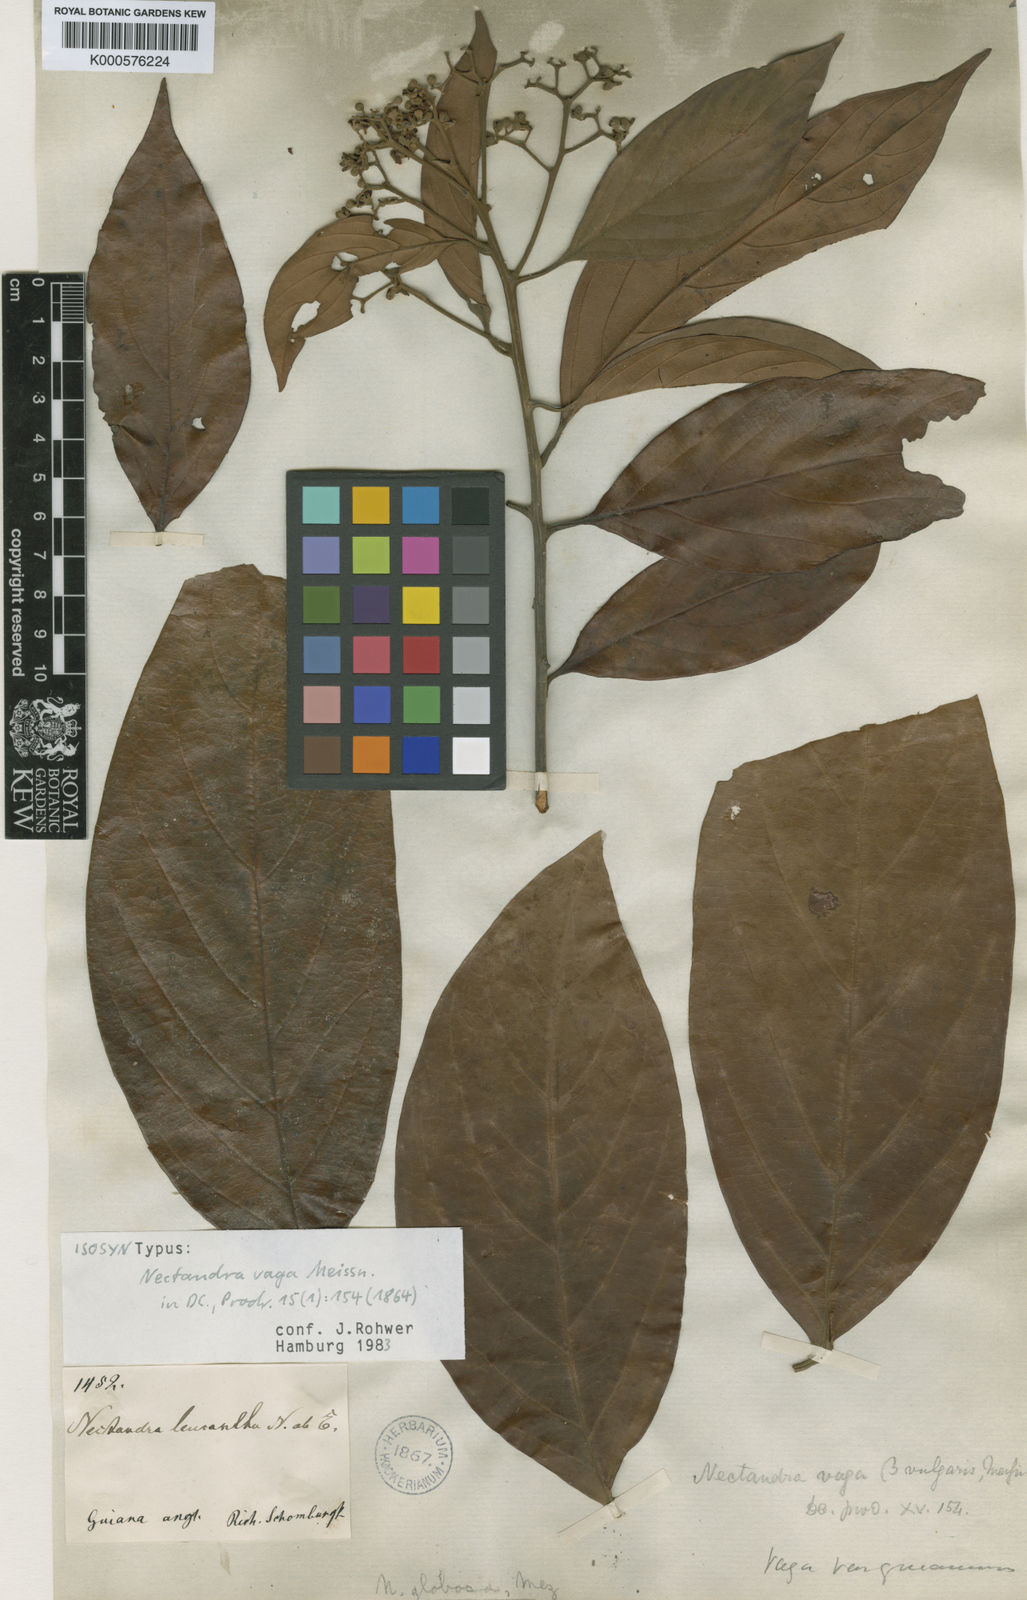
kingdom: Plantae
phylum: Tracheophyta
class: Magnoliopsida
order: Laurales
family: Lauraceae
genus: Nectandra
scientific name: Nectandra globosa
